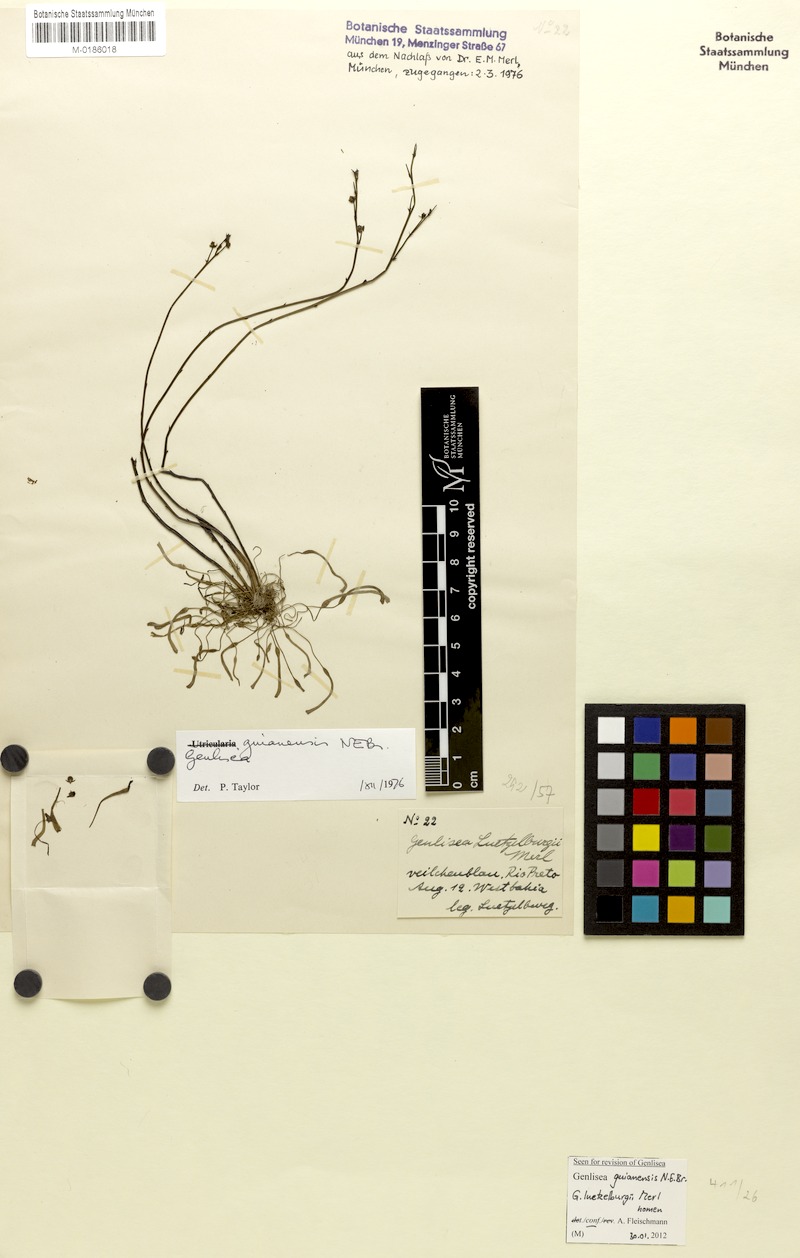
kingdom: Plantae
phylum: Tracheophyta
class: Magnoliopsida
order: Lamiales
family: Lentibulariaceae
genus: Genlisea
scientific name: Genlisea guianensis
